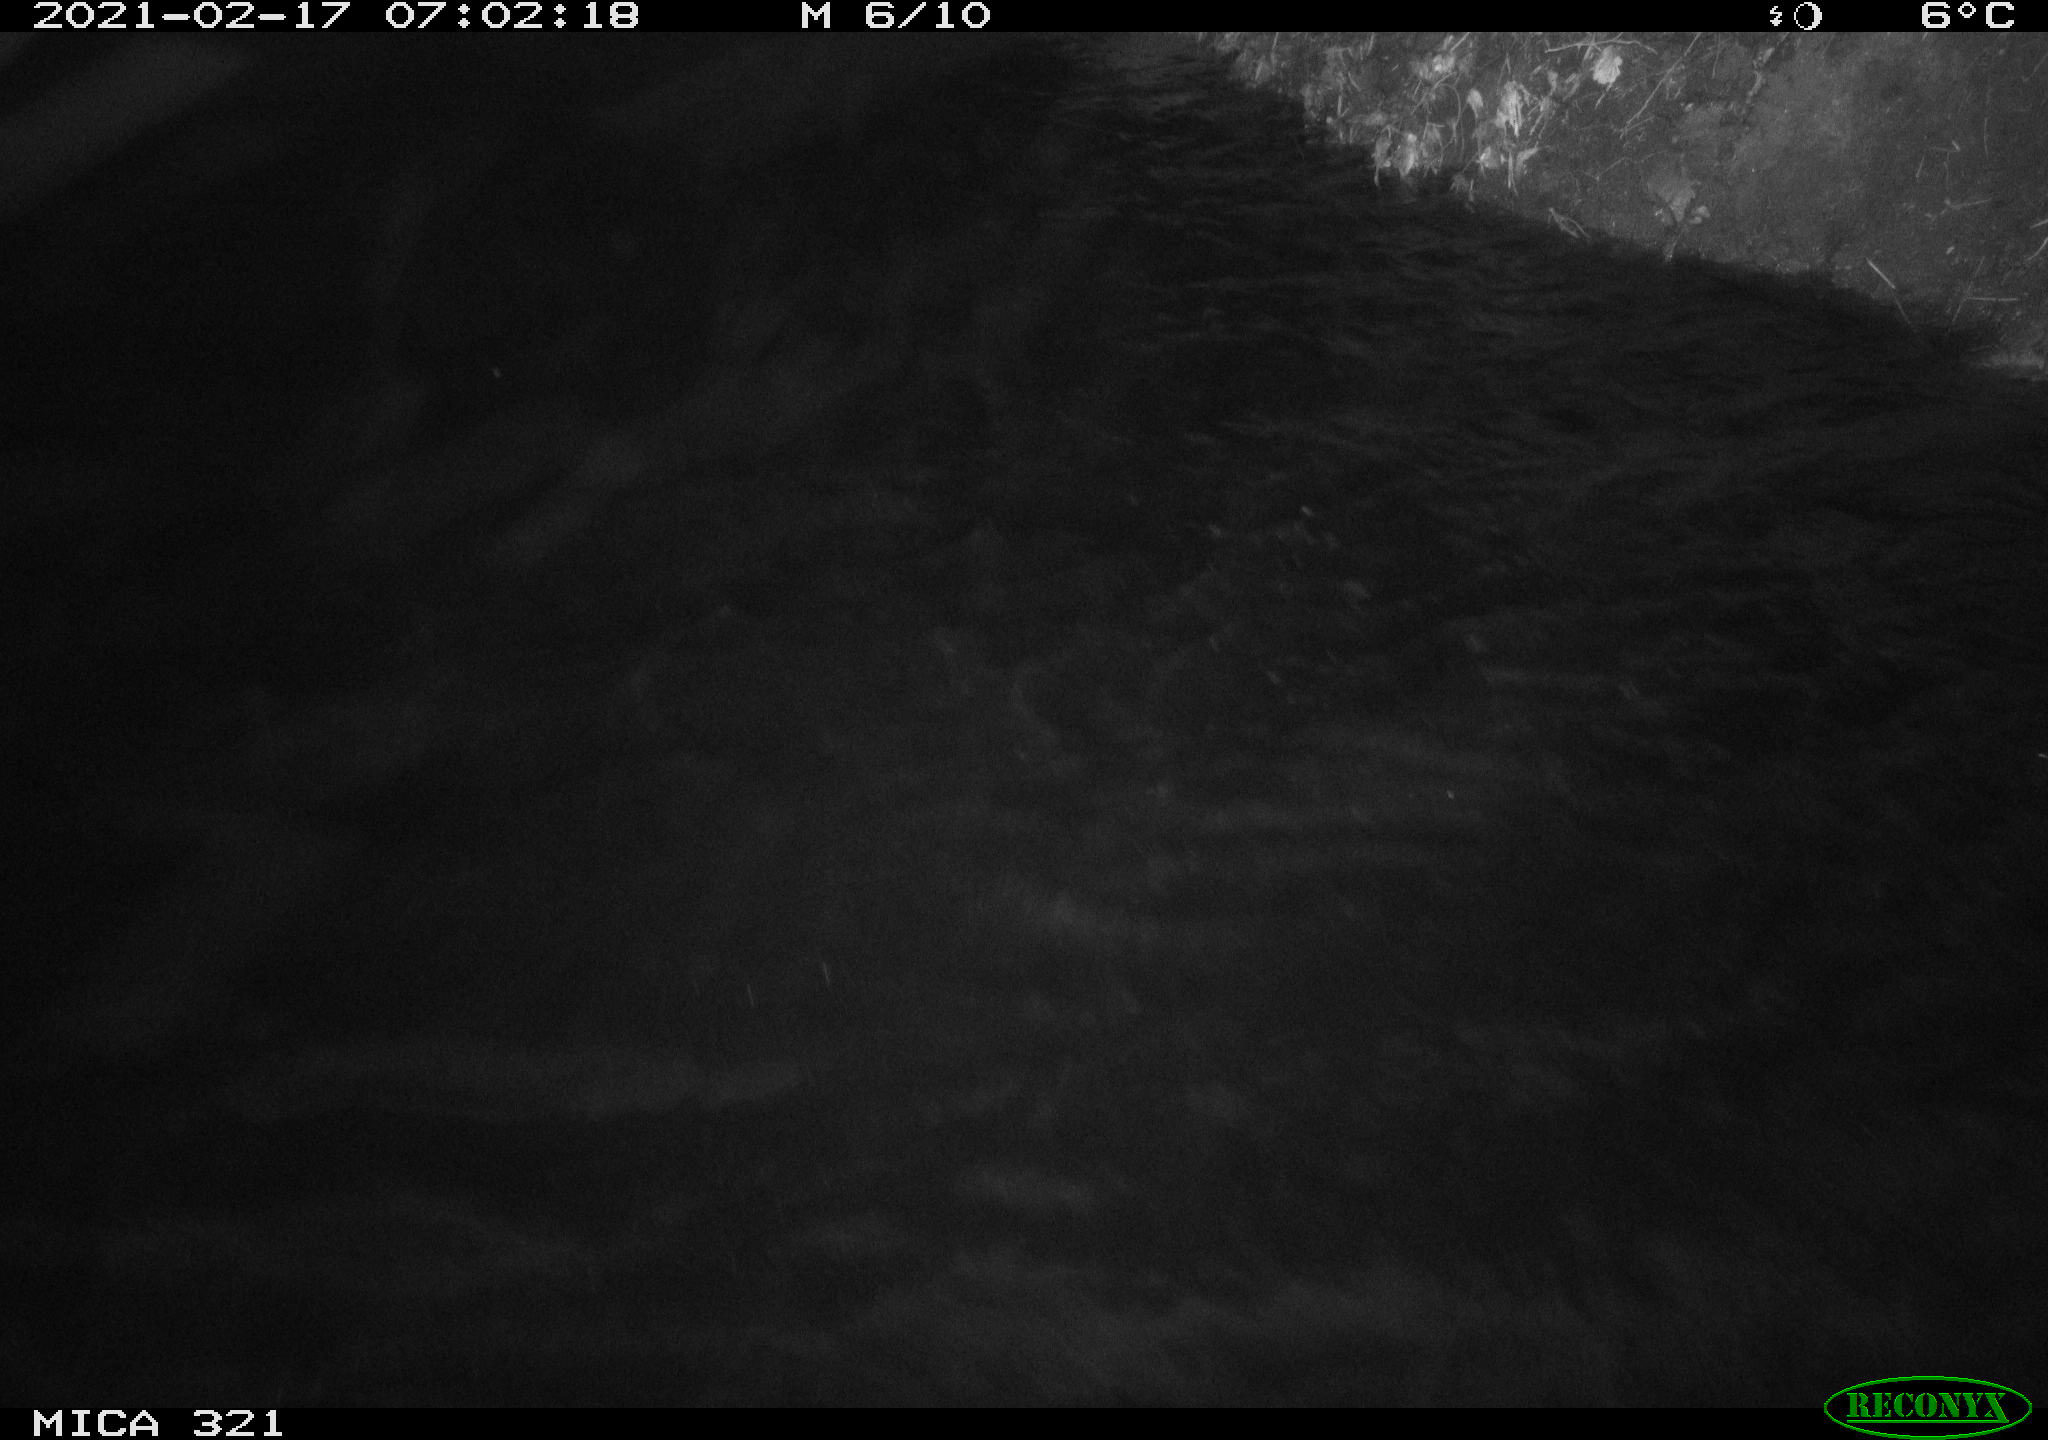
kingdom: Animalia
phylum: Chordata
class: Aves
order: Anseriformes
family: Anatidae
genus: Anas
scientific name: Anas platyrhynchos
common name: Mallard
